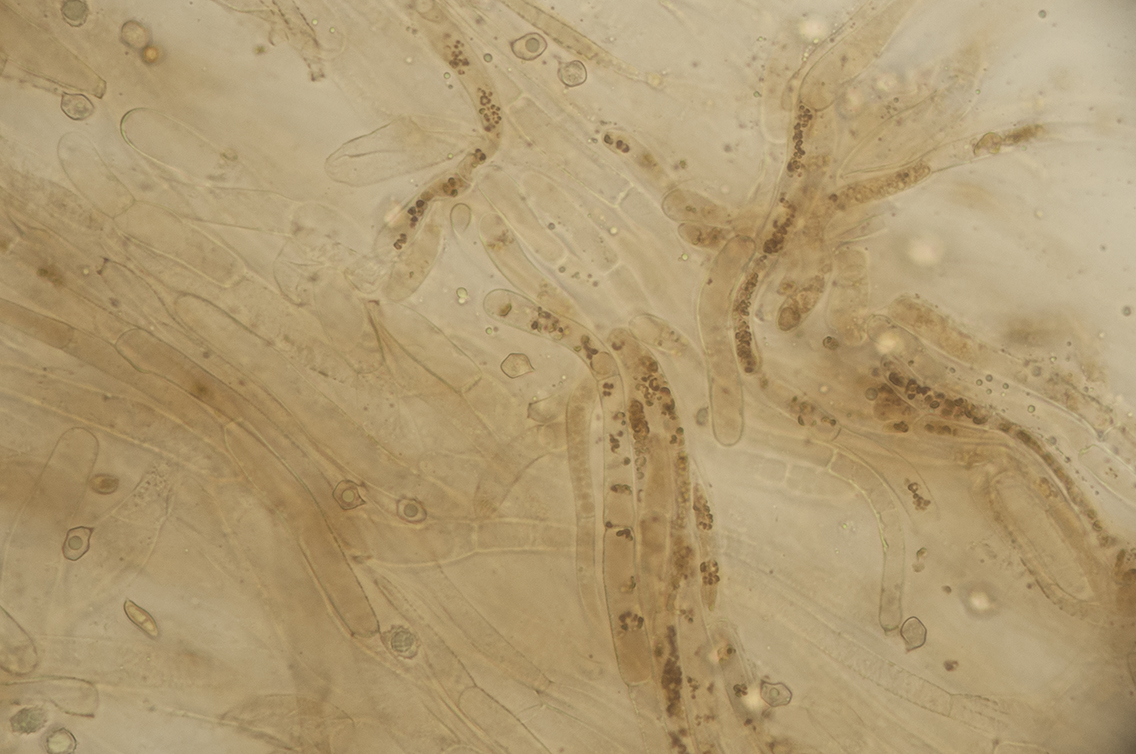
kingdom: Fungi
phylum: Basidiomycota
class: Agaricomycetes
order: Agaricales
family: Entolomataceae
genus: Entoloma
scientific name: Entoloma fernandae
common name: filtet rødblad
